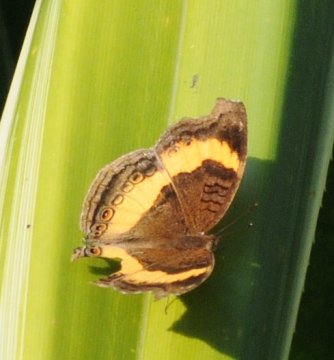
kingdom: Animalia
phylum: Arthropoda
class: Insecta
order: Lepidoptera
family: Nymphalidae
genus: Junonia
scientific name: Junonia terea
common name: Soldier Pansy
